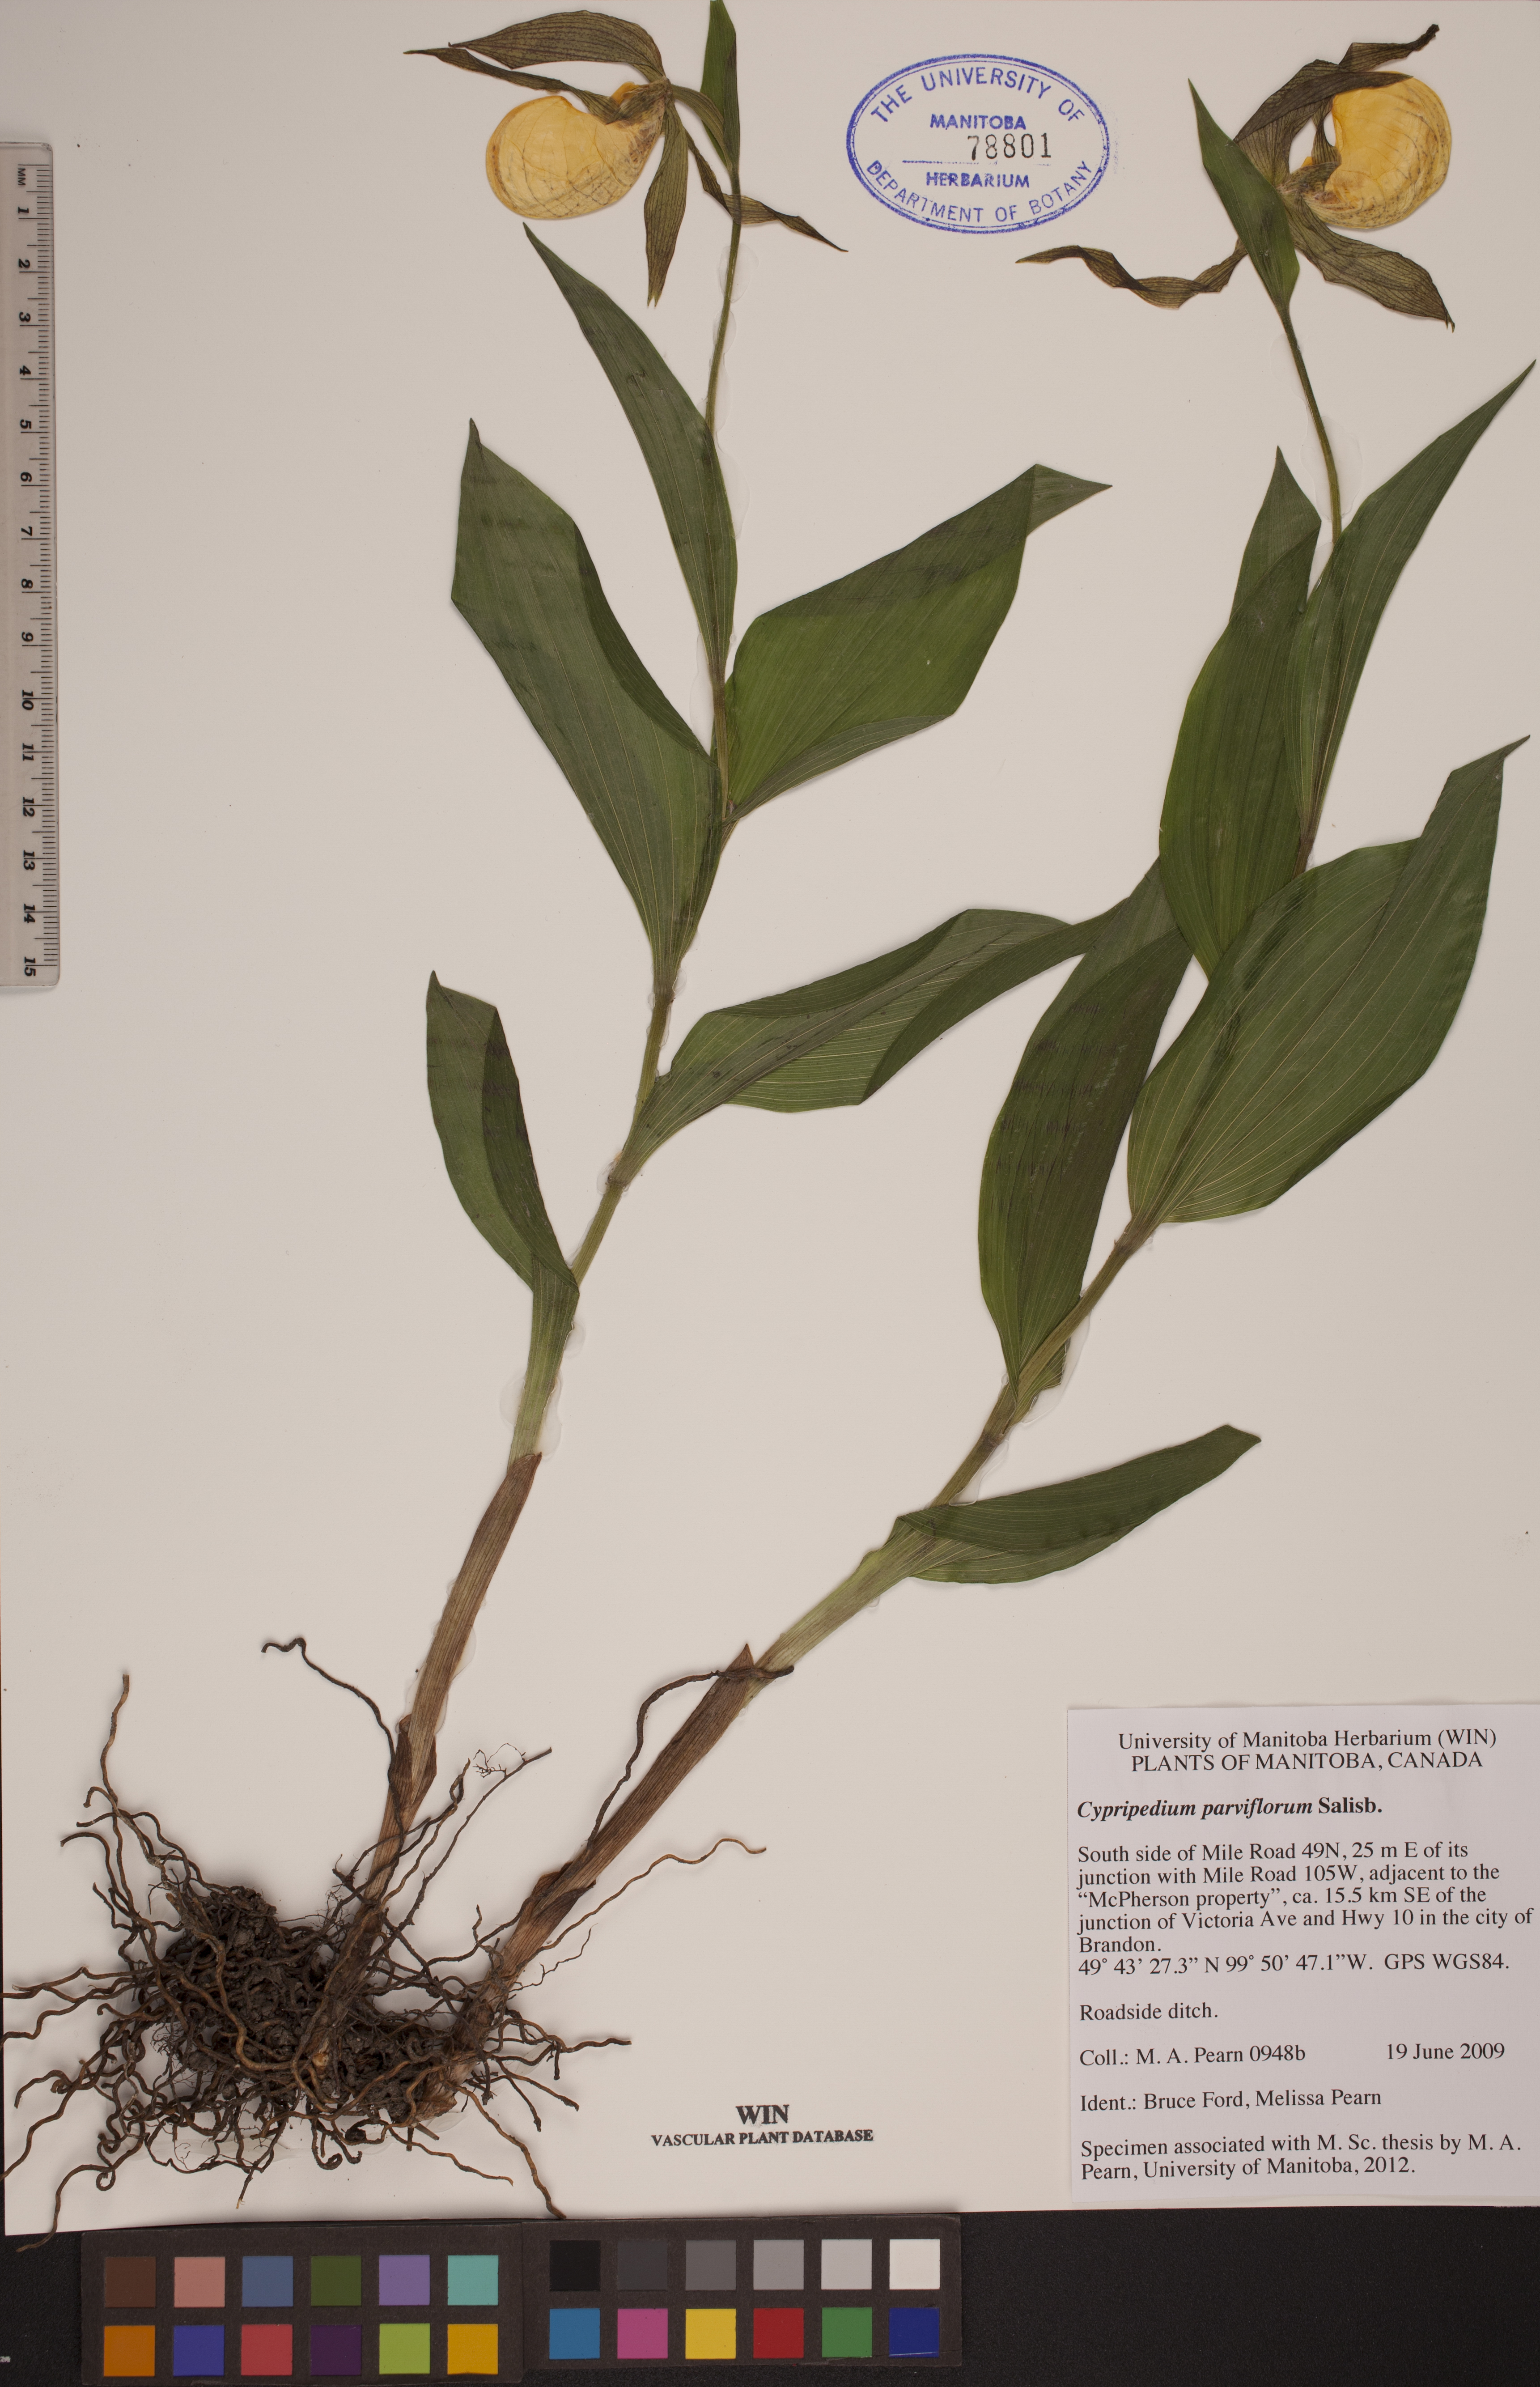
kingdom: Plantae
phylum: Tracheophyta
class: Liliopsida
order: Asparagales
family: Orchidaceae
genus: Cypripedium
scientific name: Cypripedium parviflorum
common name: American yellow lady's-slipper
